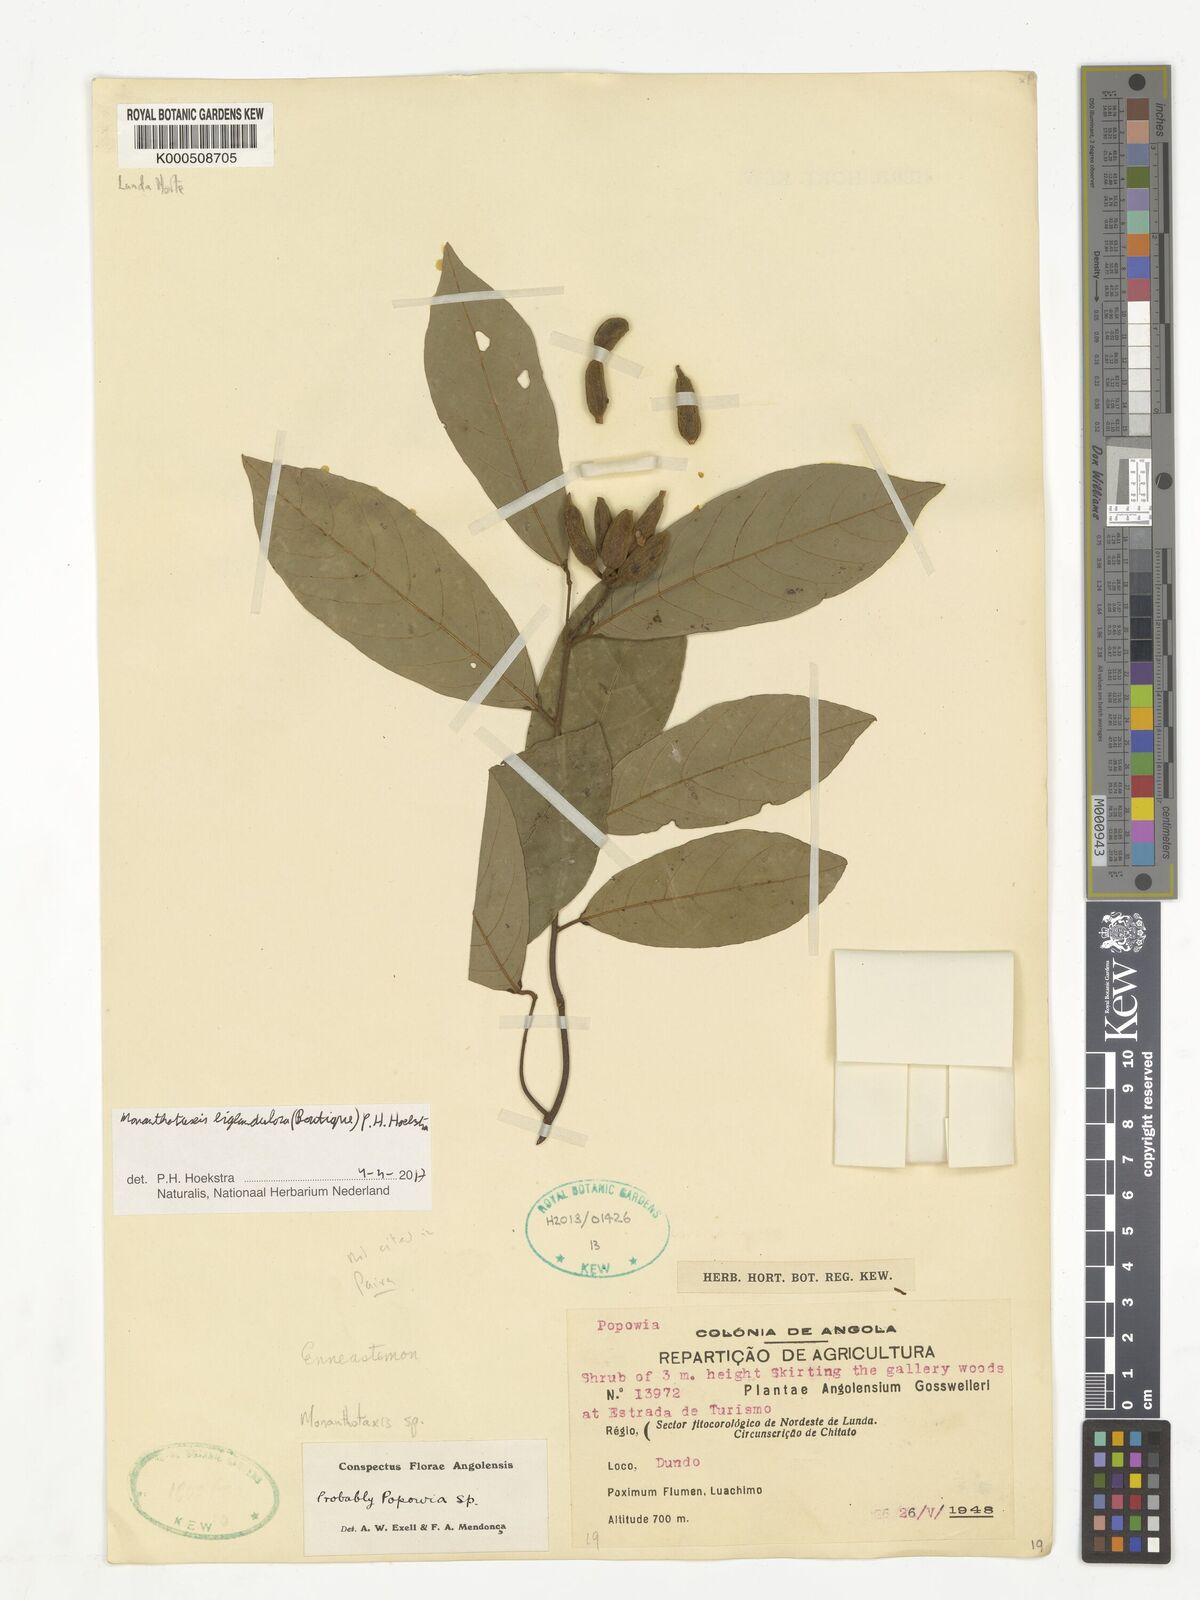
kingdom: Plantae
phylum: Tracheophyta
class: Magnoliopsida
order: Magnoliales
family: Annonaceae
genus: Monanthotaxis
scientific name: Monanthotaxis
